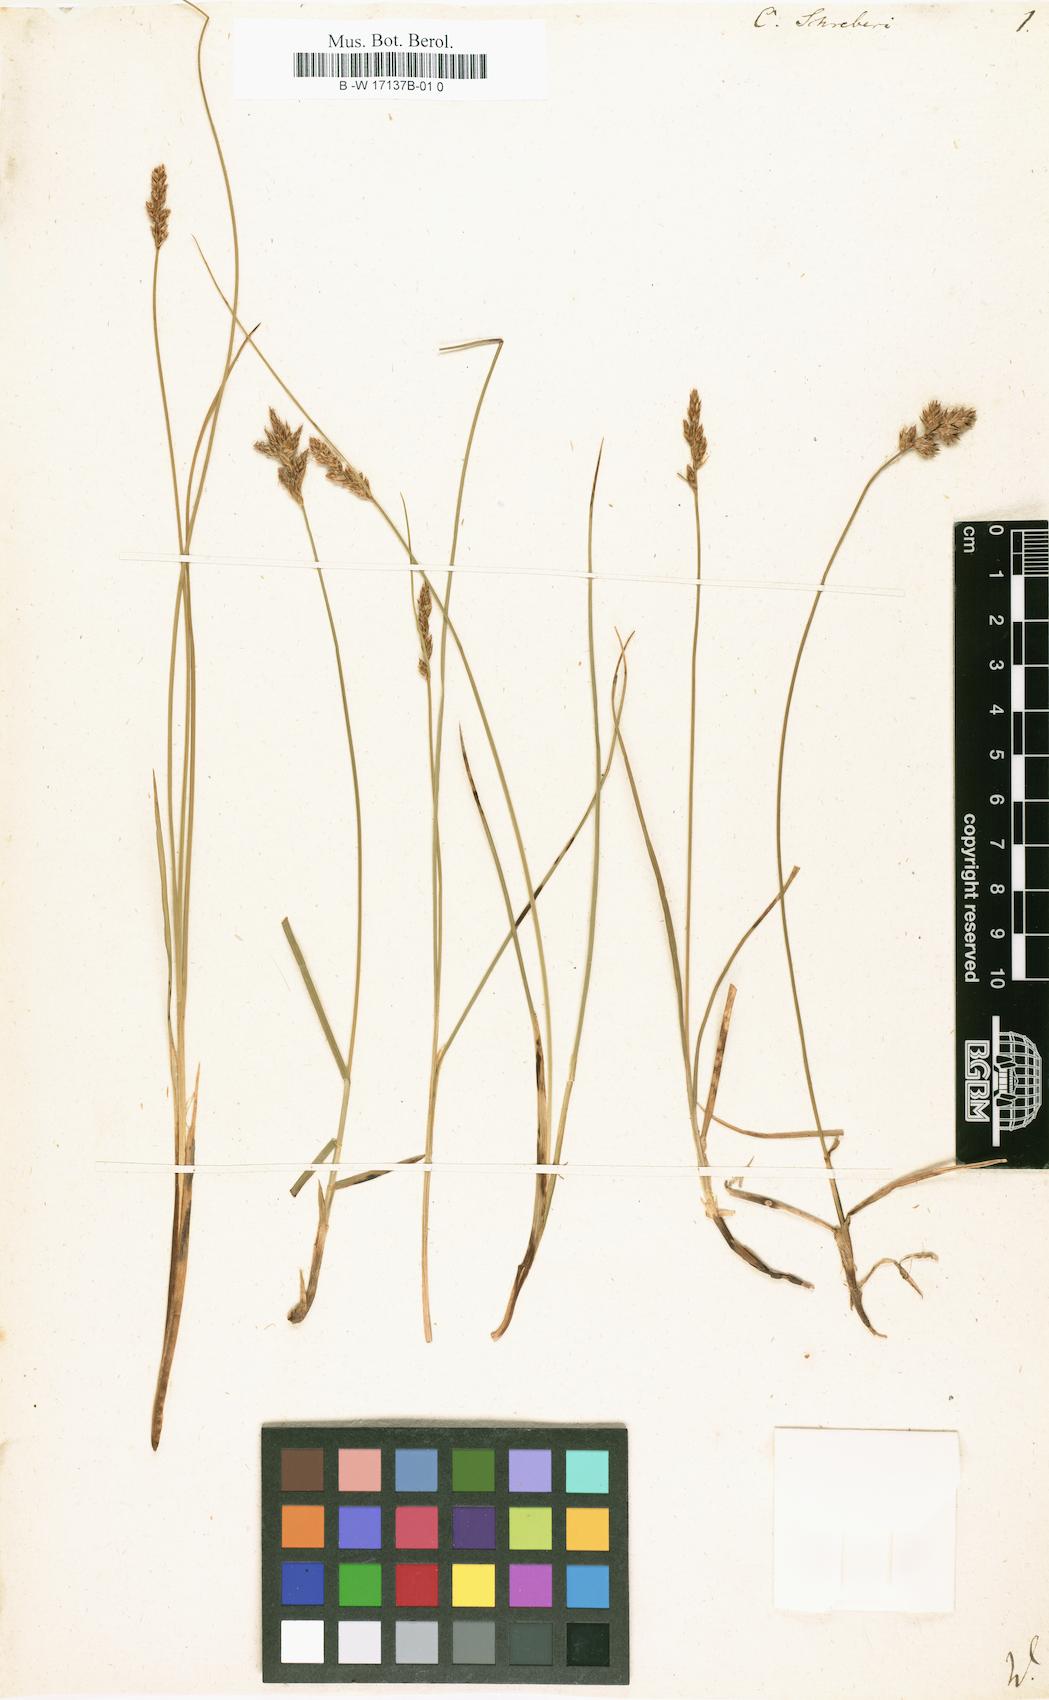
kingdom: Plantae
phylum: Tracheophyta
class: Liliopsida
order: Poales
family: Cyperaceae
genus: Carex
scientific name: Carex
